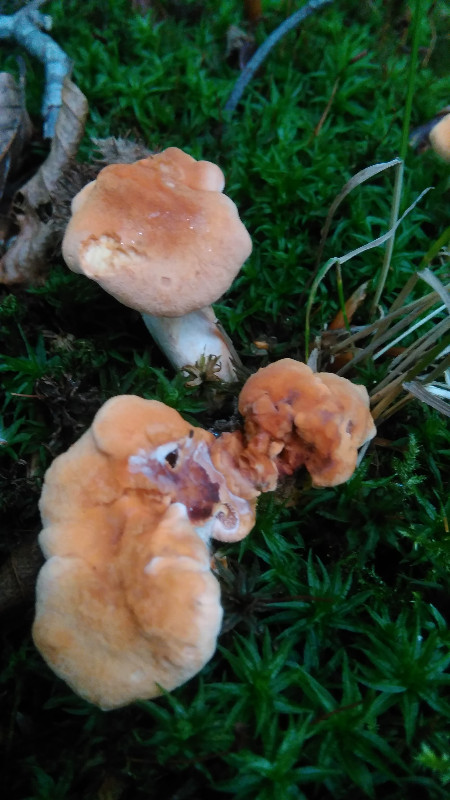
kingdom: Fungi
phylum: Basidiomycota
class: Agaricomycetes
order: Cantharellales
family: Hydnaceae
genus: Hydnum
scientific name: Hydnum
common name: pigsvamp
